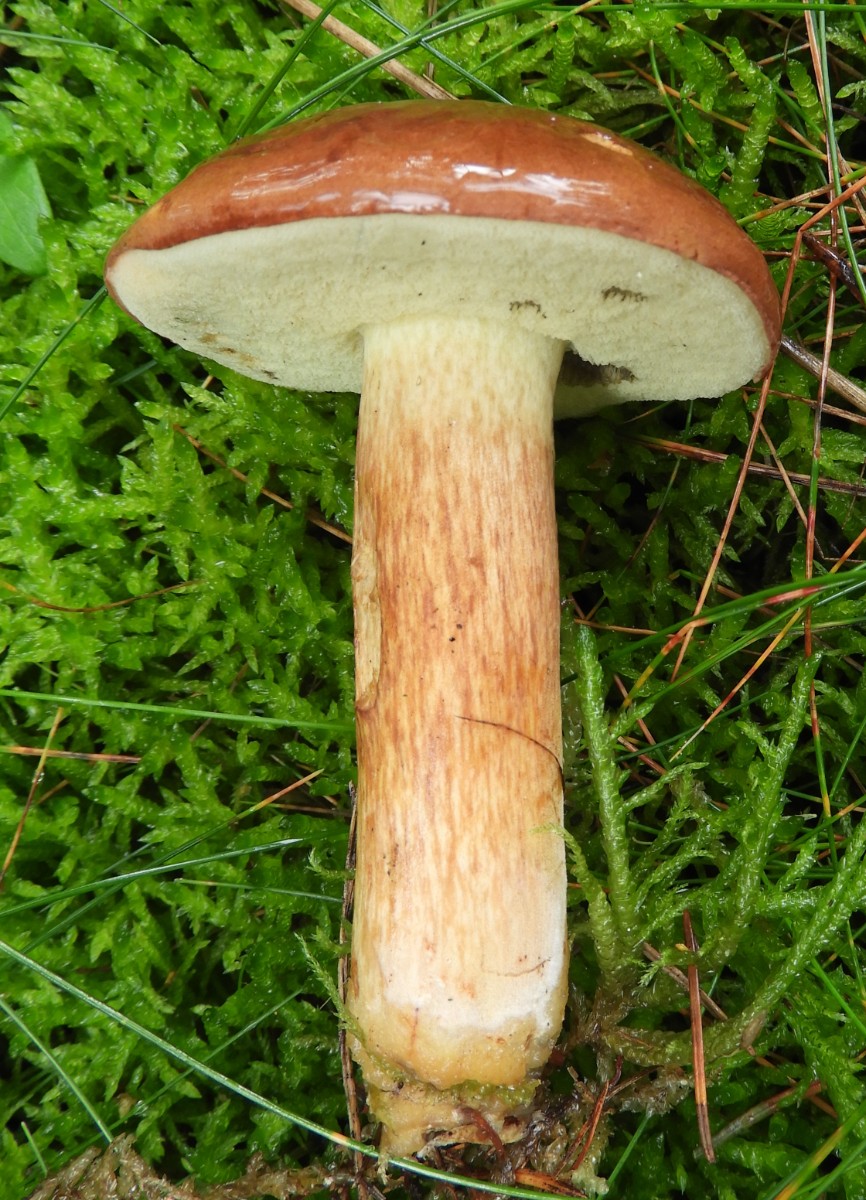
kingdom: Fungi
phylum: Basidiomycota
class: Agaricomycetes
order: Boletales
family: Boletaceae
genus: Imleria
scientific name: Imleria badia
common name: brunstokket rørhat
